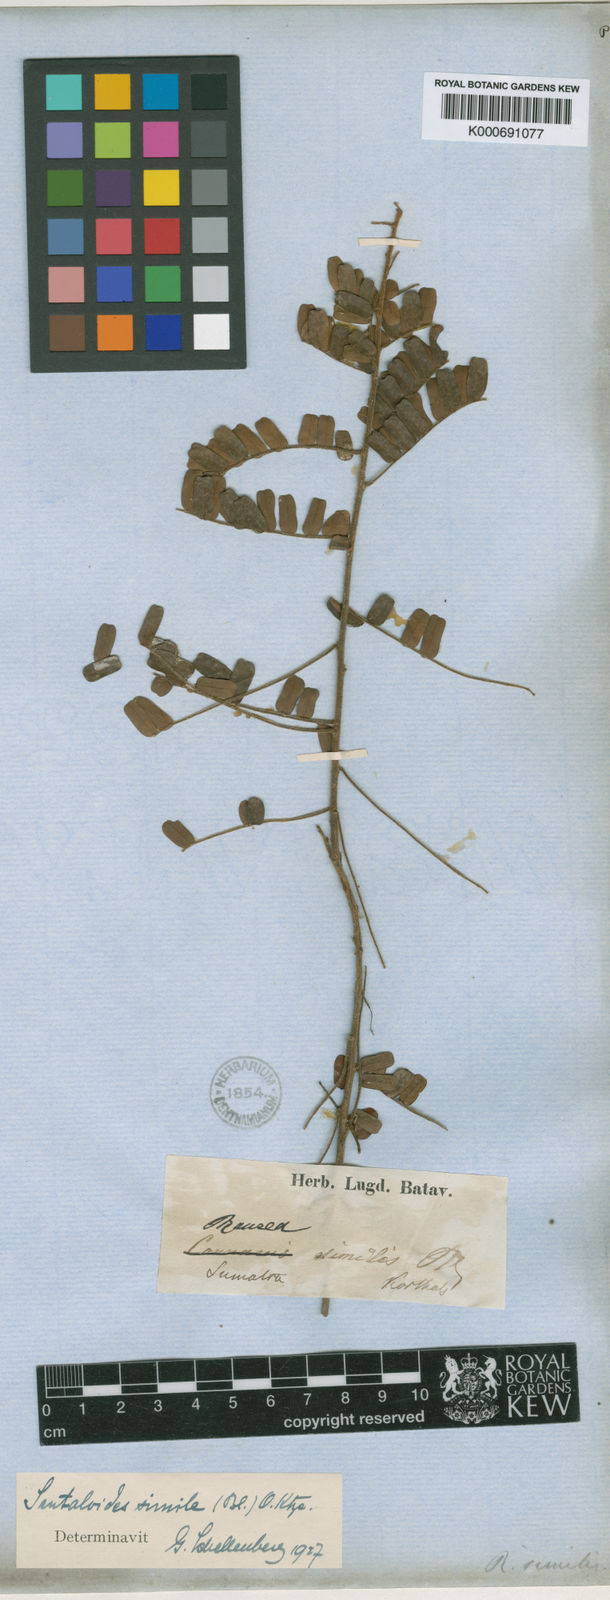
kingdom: Plantae
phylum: Tracheophyta
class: Magnoliopsida
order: Oxalidales
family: Connaraceae
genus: Rourea
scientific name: Rourea mimosoides
